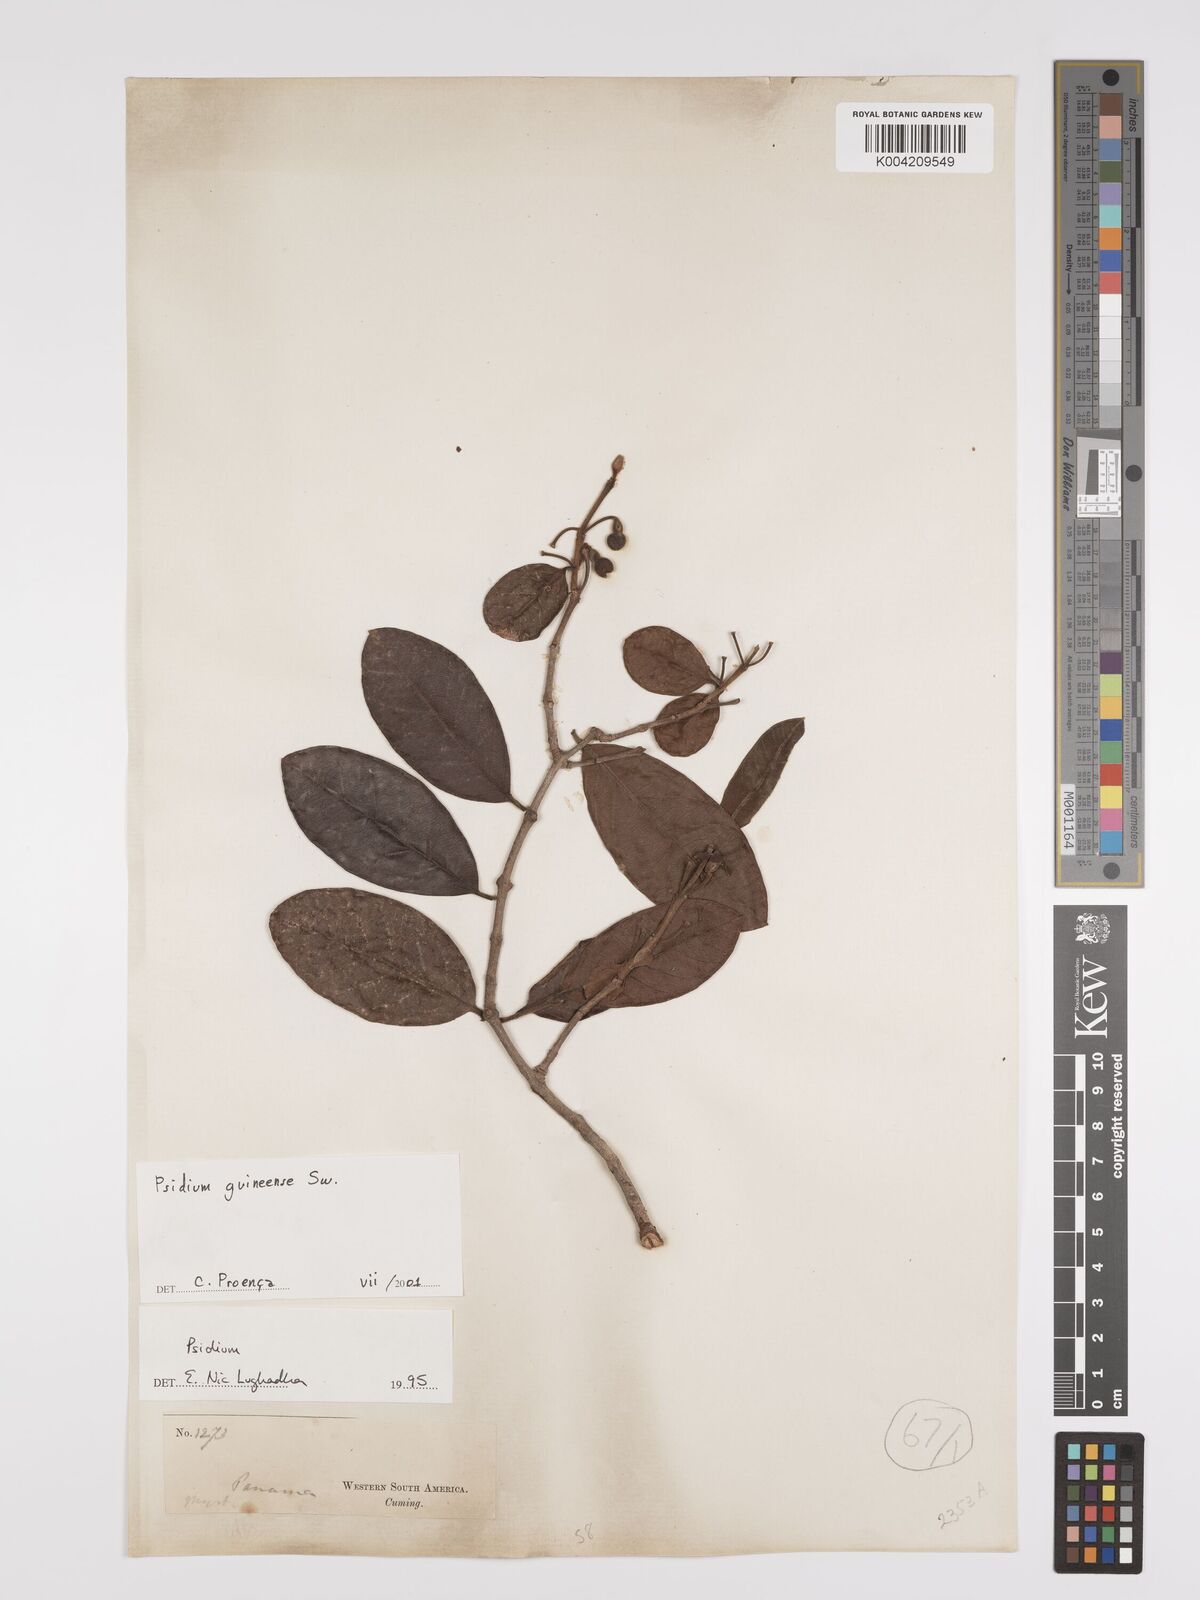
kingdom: Plantae
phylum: Tracheophyta
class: Magnoliopsida
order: Myrtales
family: Myrtaceae
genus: Psidium
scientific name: Psidium guineense
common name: Brazilian guava
